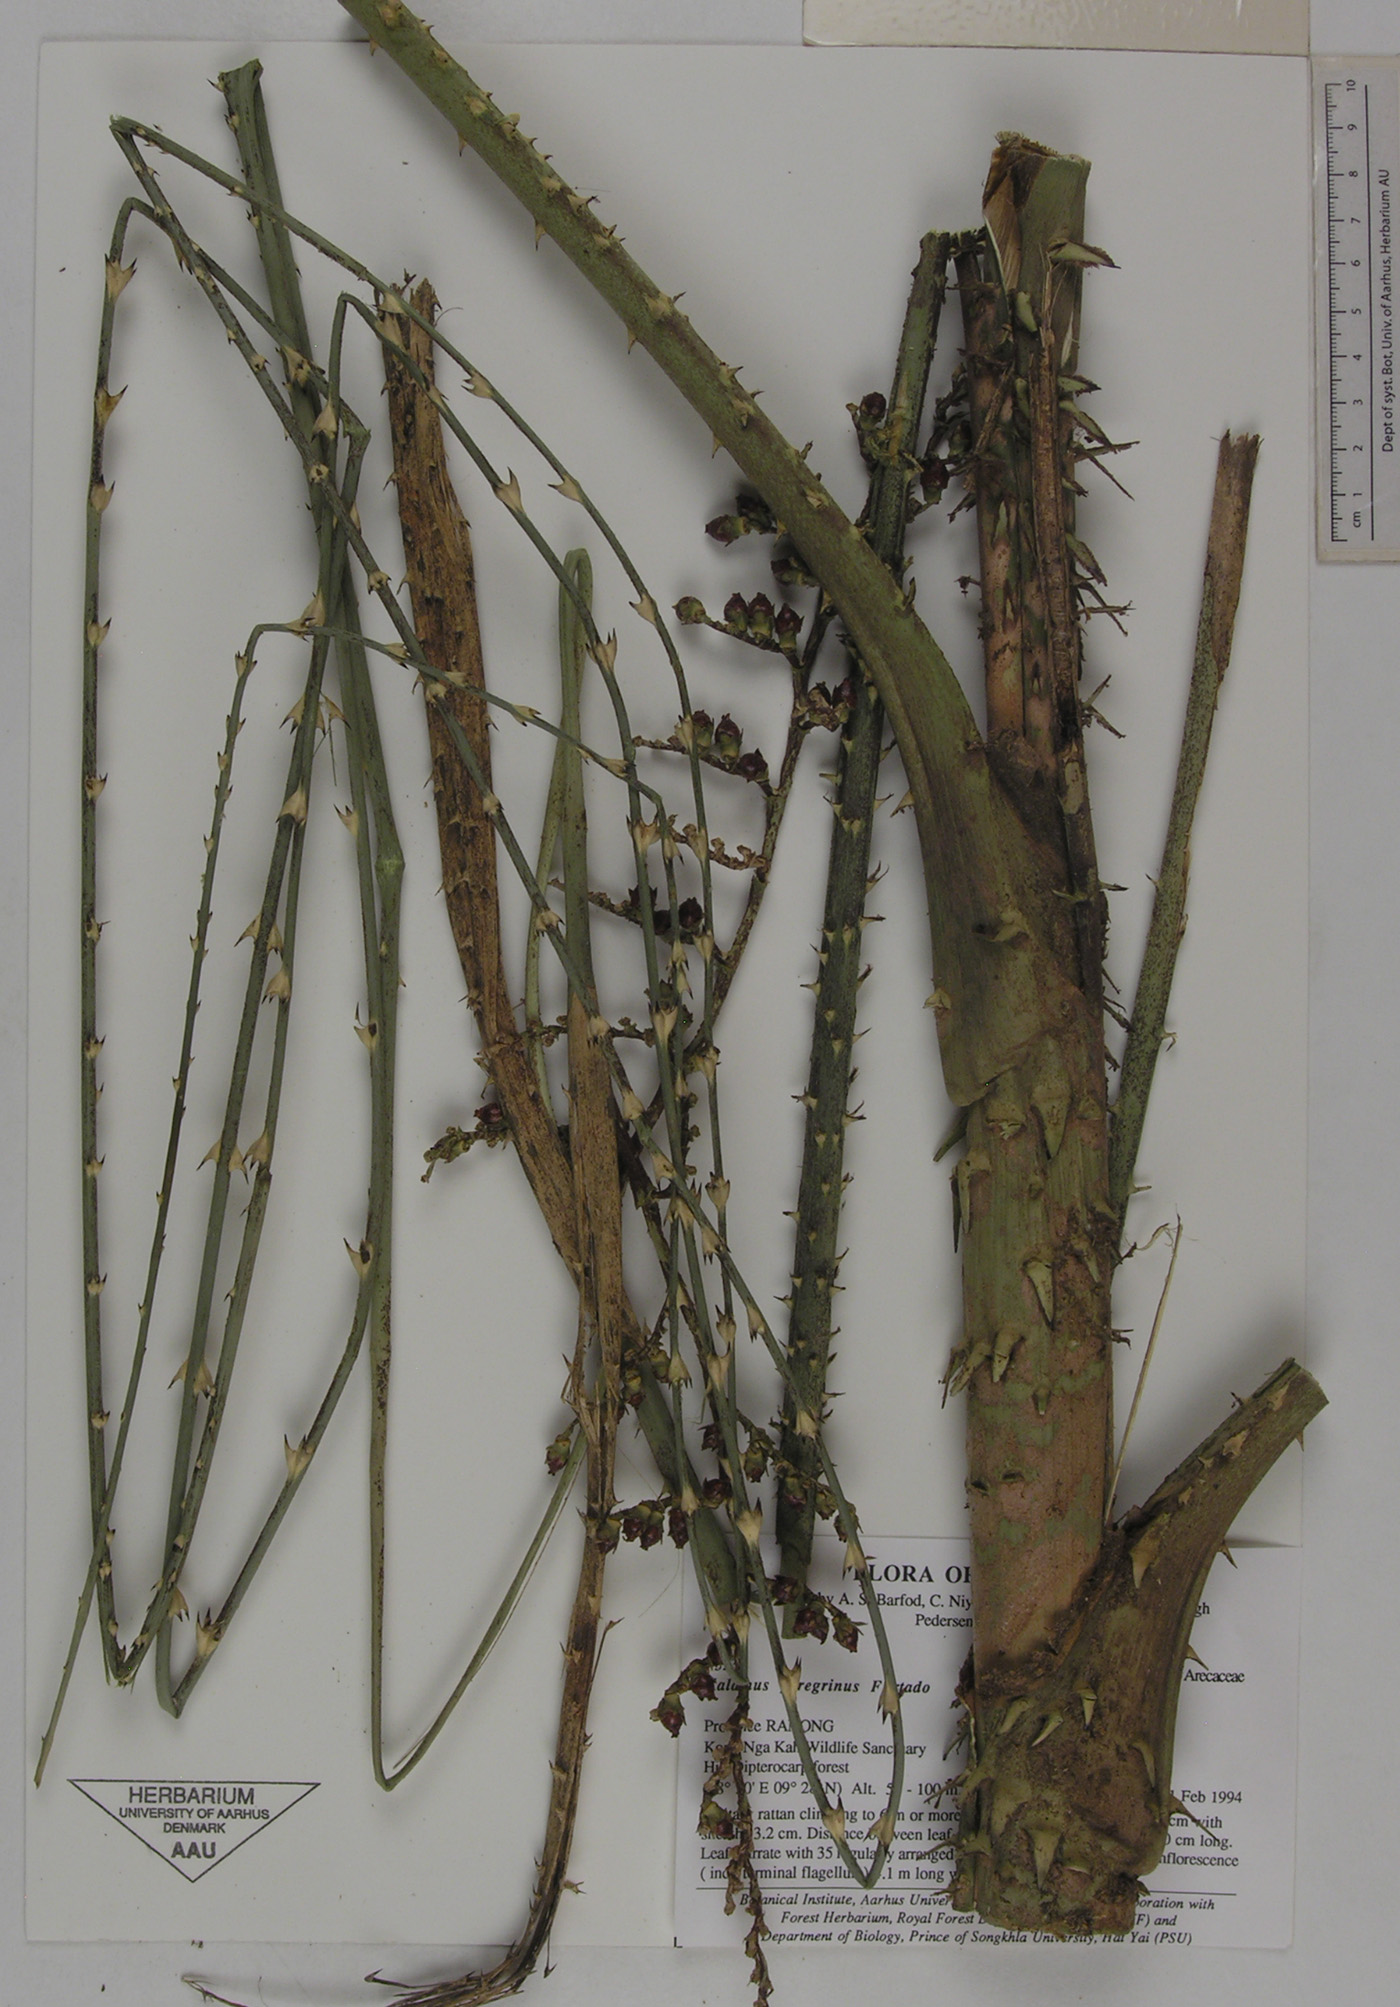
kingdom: Plantae
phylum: Tracheophyta
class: Liliopsida
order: Arecales
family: Arecaceae
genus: Calamus
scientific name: Calamus peregrinus
